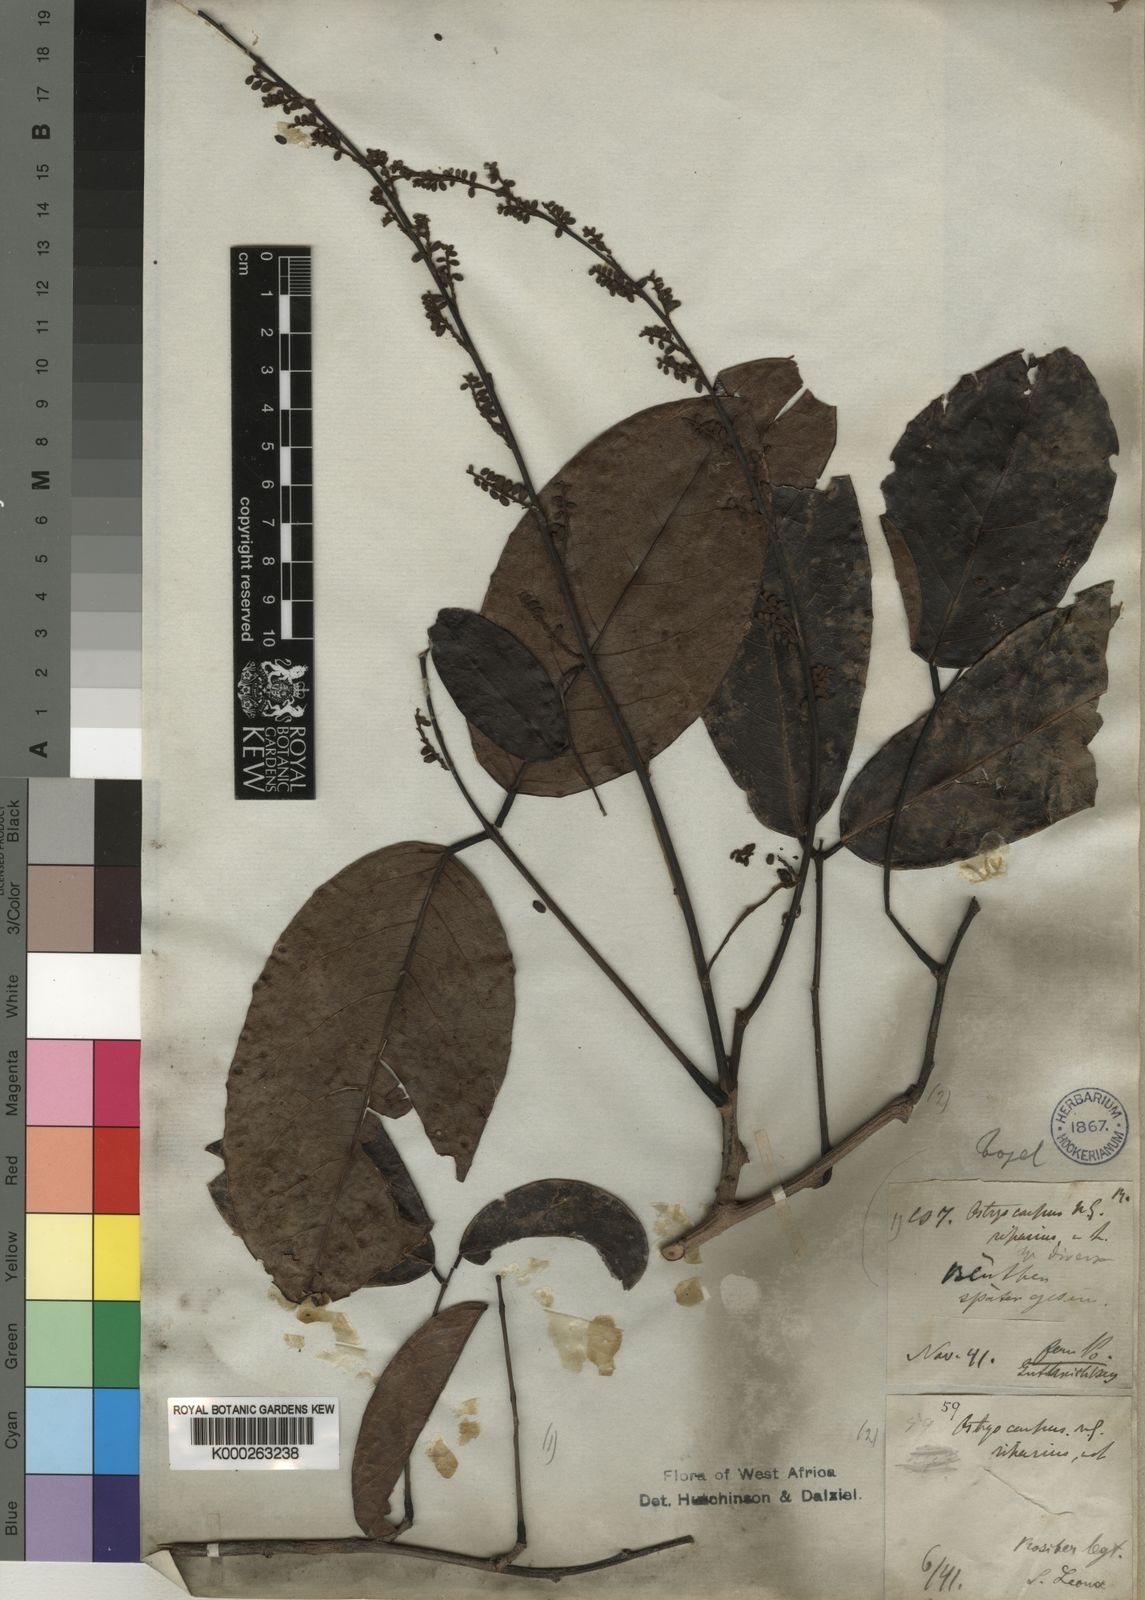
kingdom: Plantae
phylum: Tracheophyta
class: Magnoliopsida
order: Fabales
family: Fabaceae
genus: Ostryocarpus
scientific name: Ostryocarpus riparius
